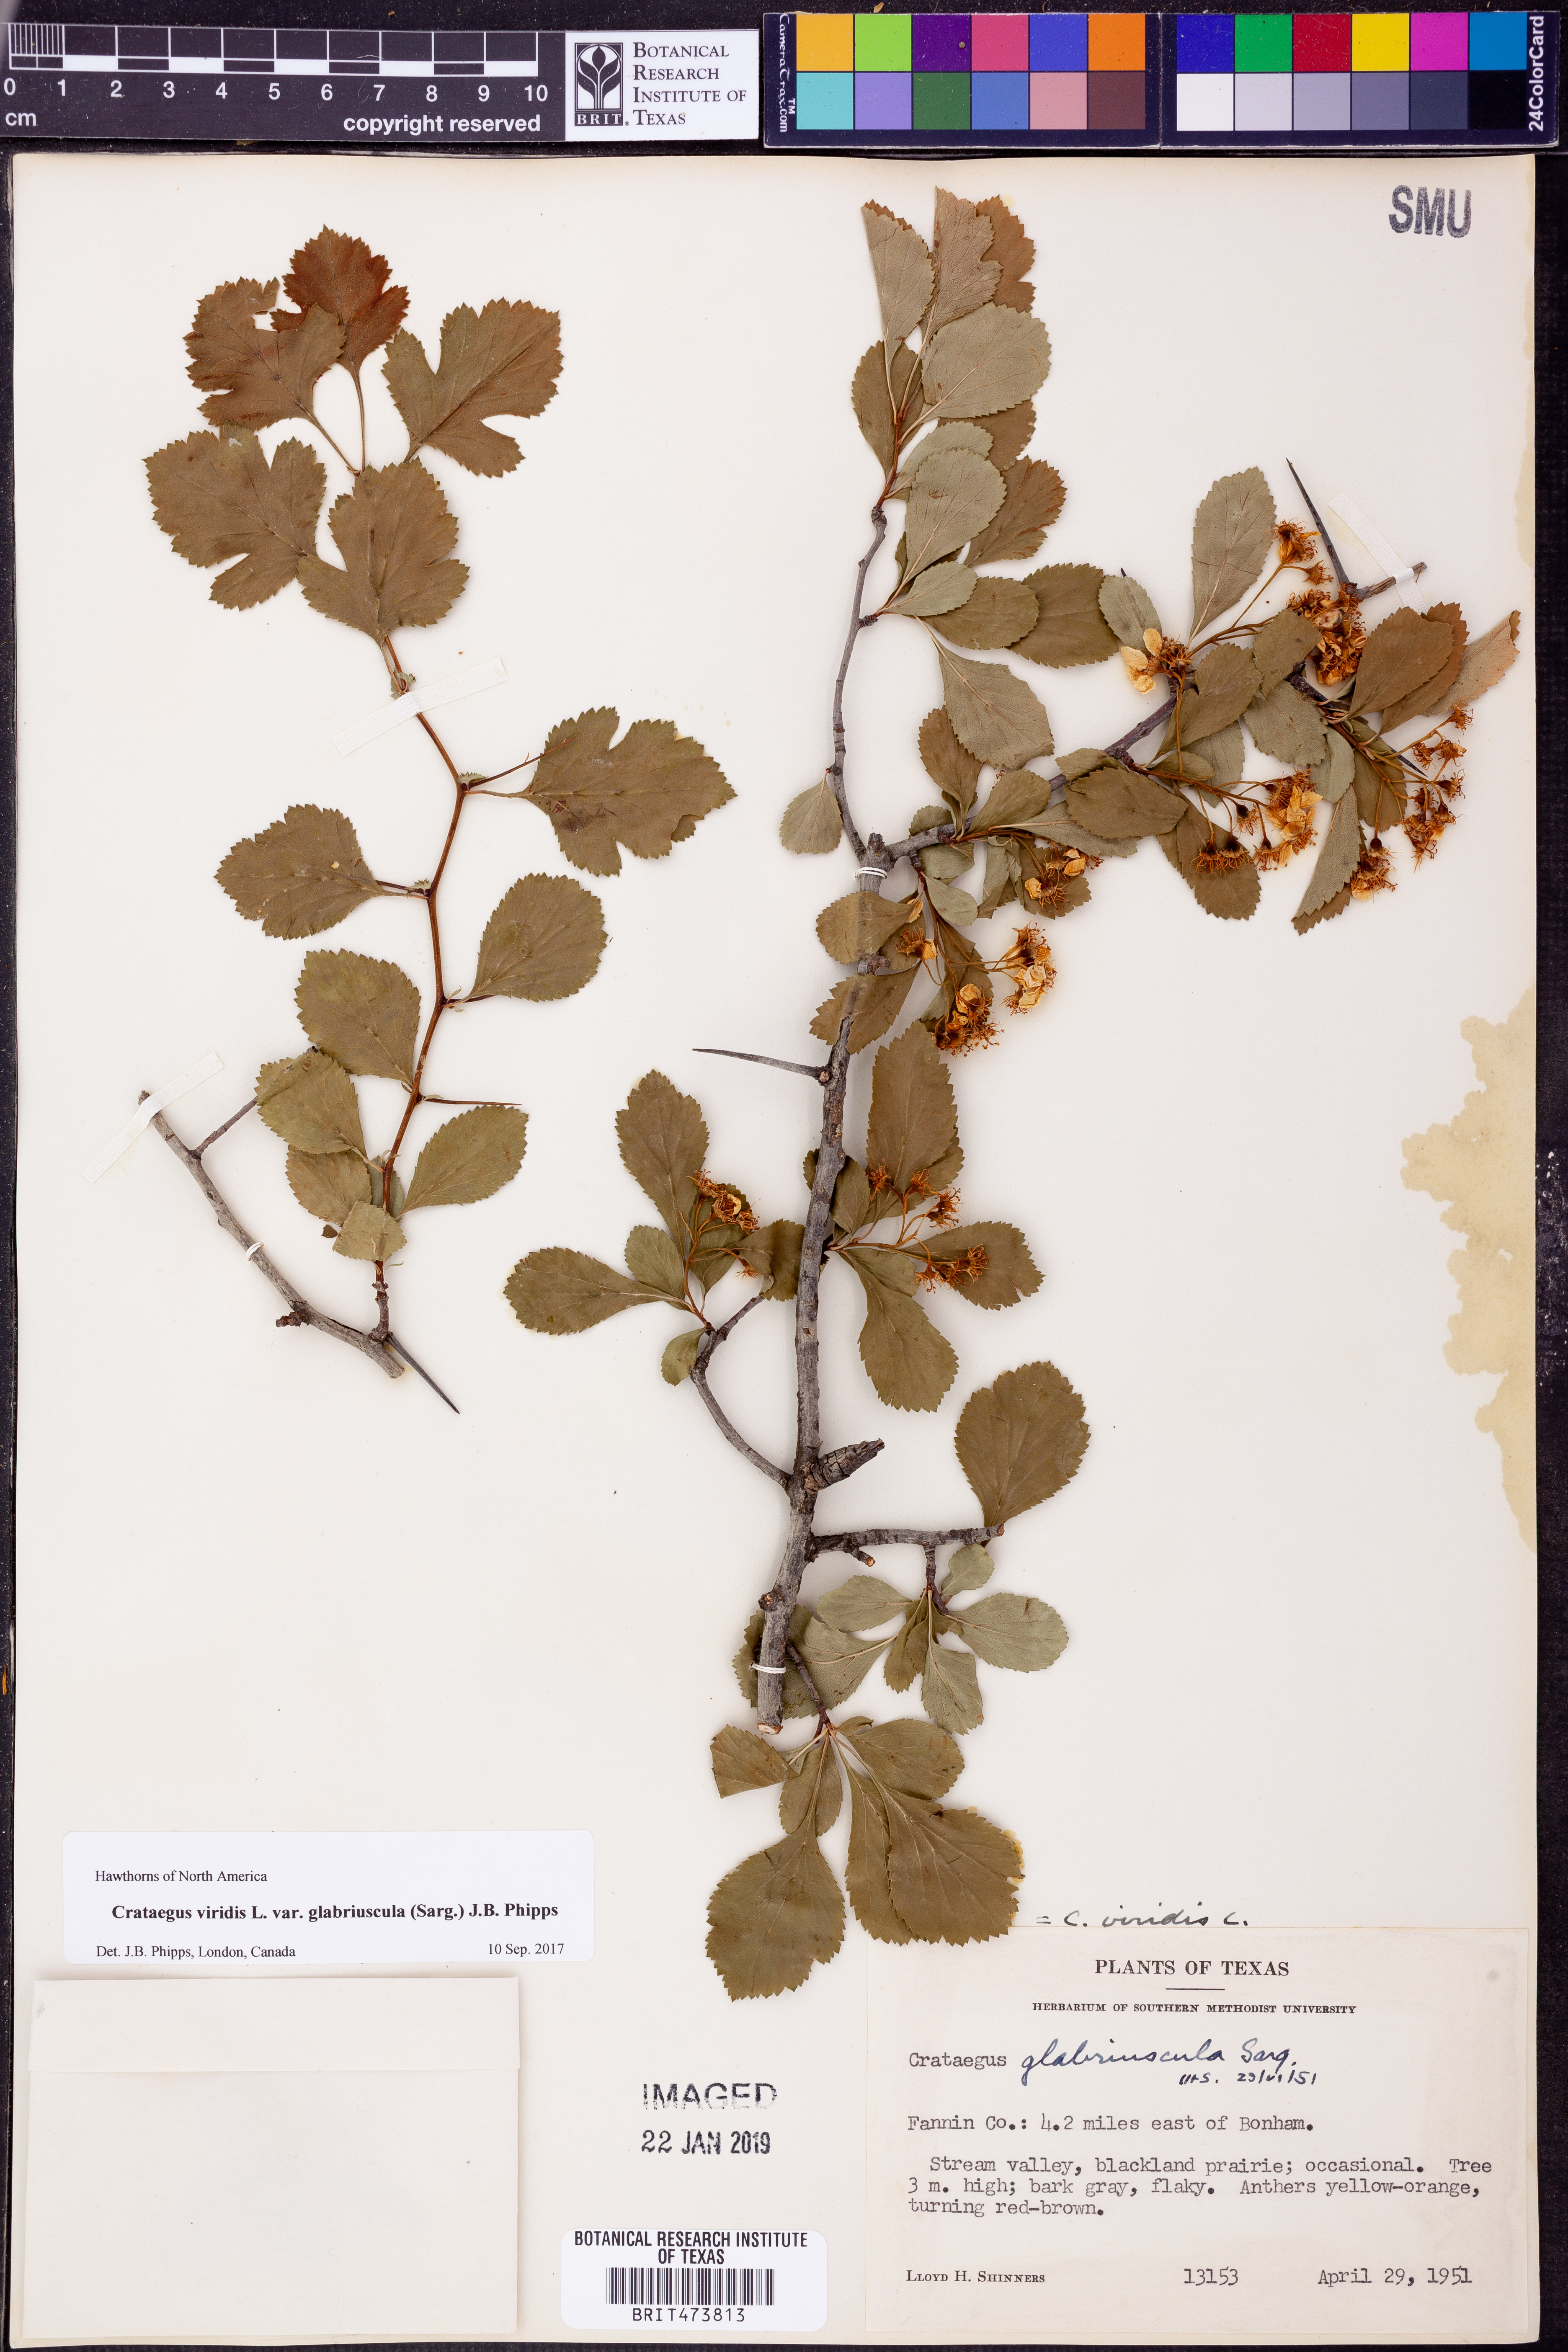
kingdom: Plantae
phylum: Tracheophyta
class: Magnoliopsida
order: Rosales
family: Rosaceae
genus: Crataegus
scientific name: Crataegus viridis
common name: Southernthorn
